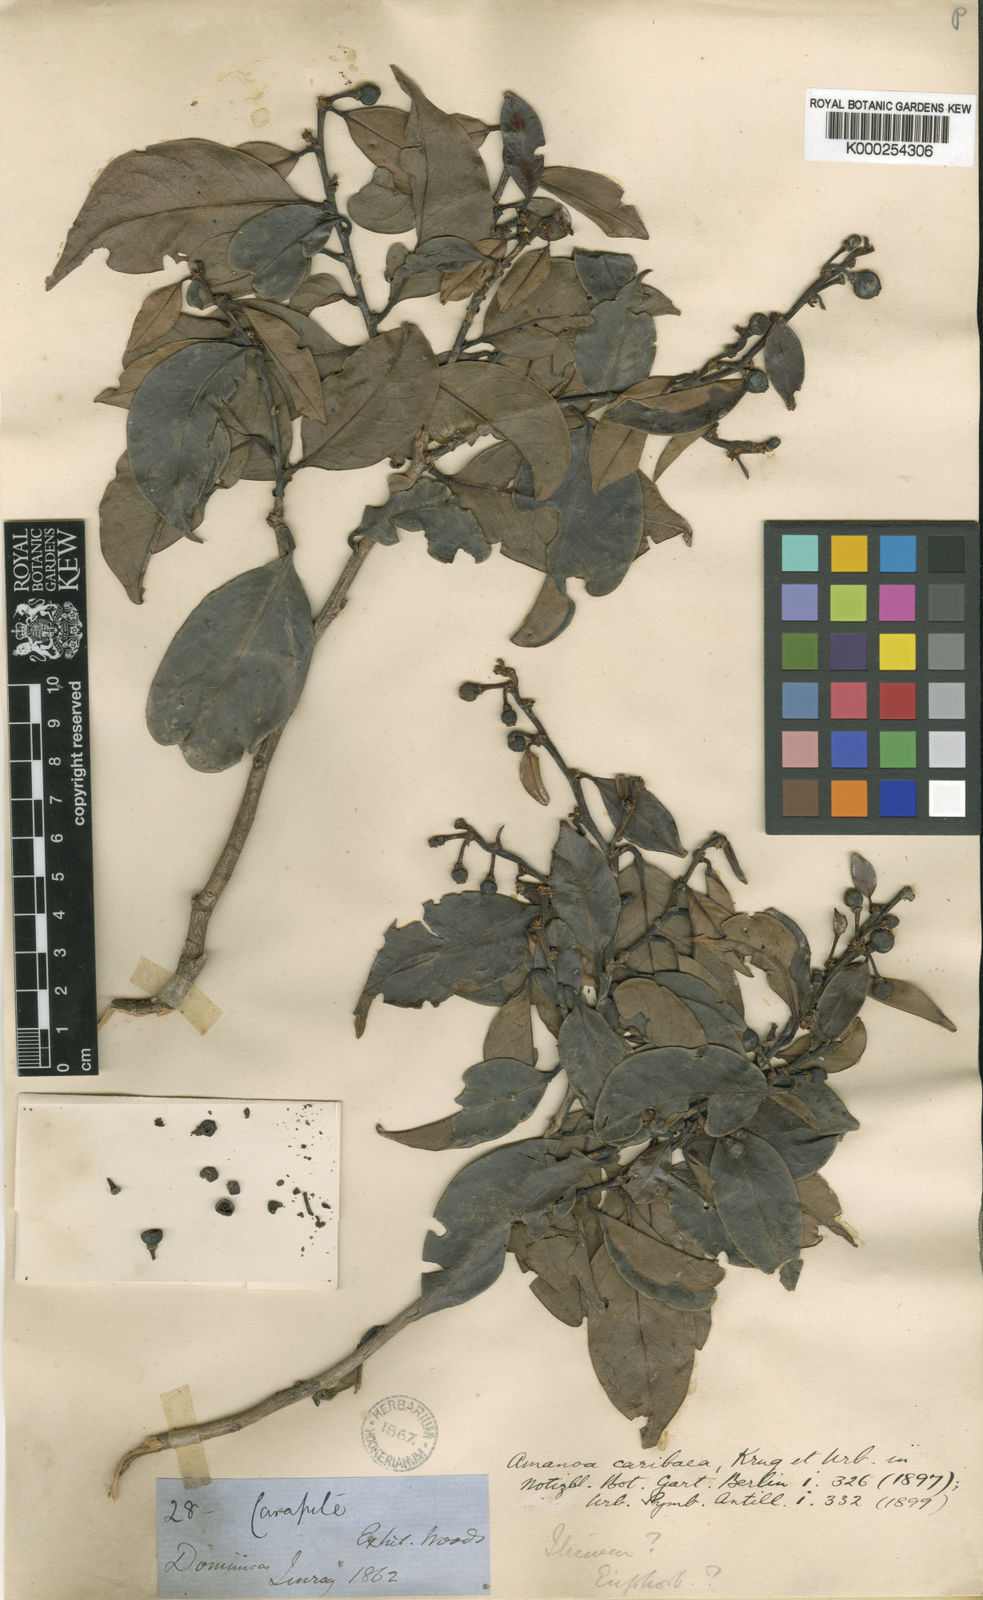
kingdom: Plantae
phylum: Tracheophyta
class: Magnoliopsida
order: Malpighiales
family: Phyllanthaceae
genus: Amanoa
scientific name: Amanoa caribaea
